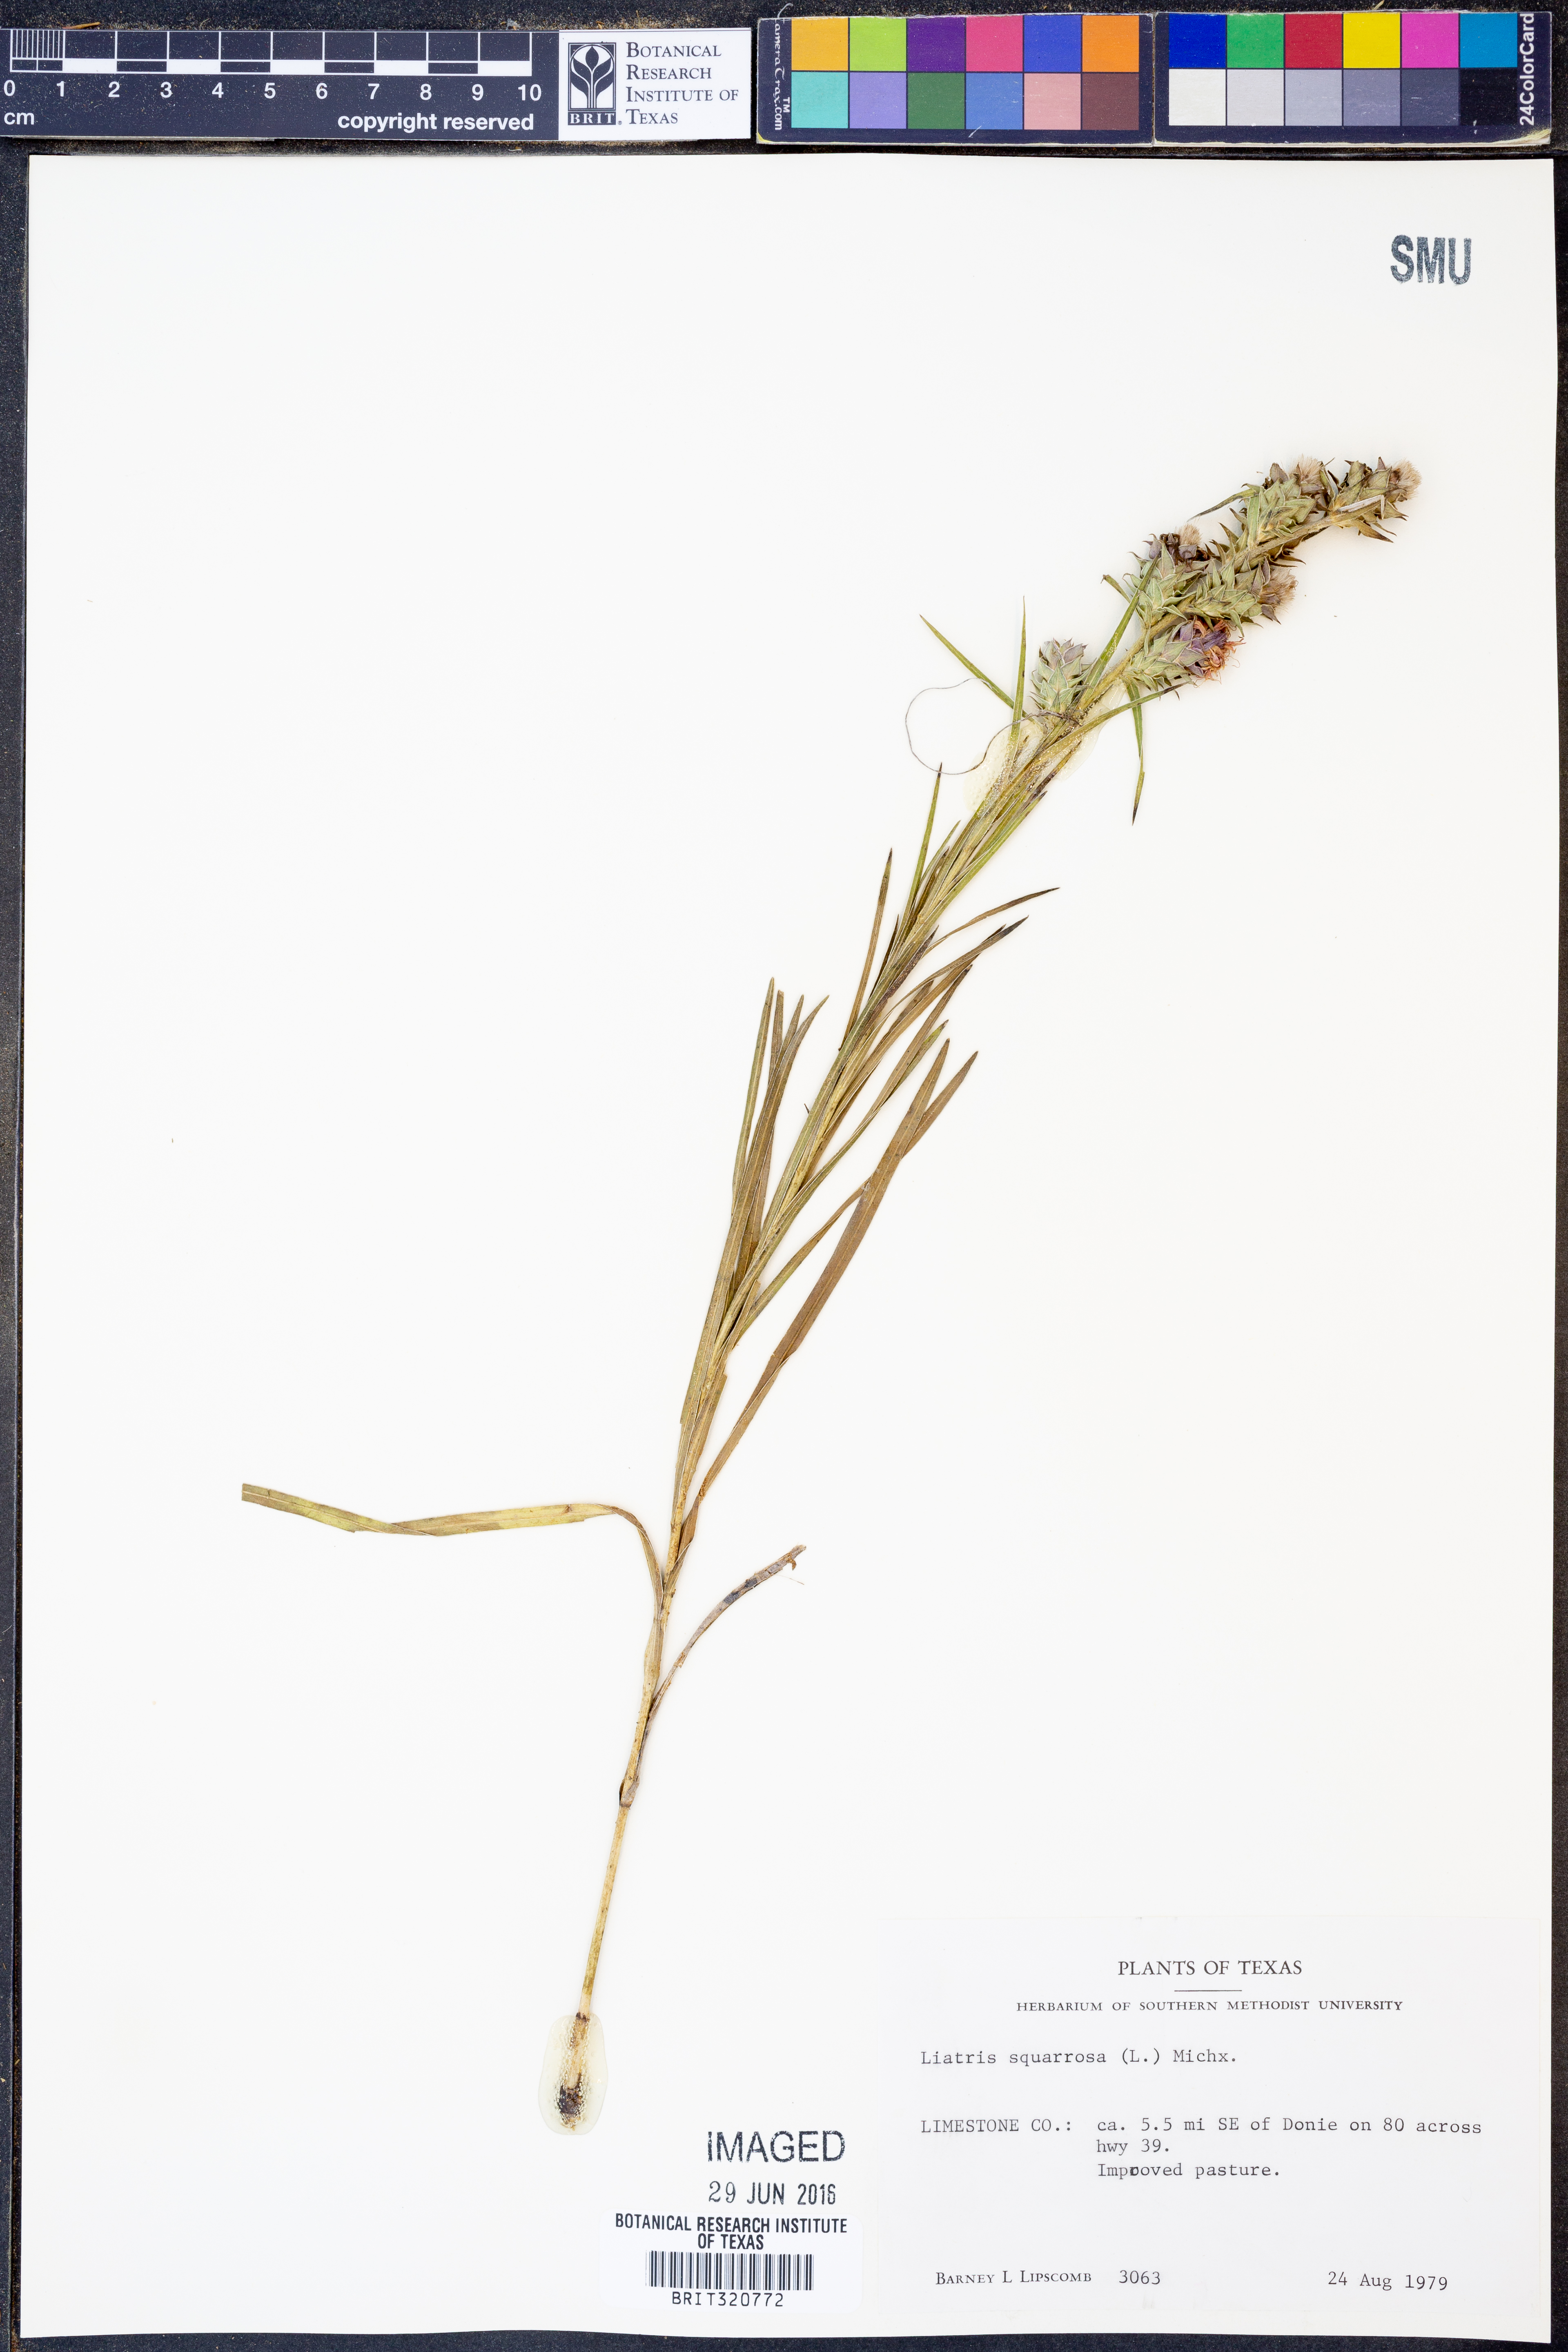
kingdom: Plantae
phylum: Tracheophyta
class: Magnoliopsida
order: Asterales
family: Asteraceae
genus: Liatris
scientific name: Liatris squarrosa
